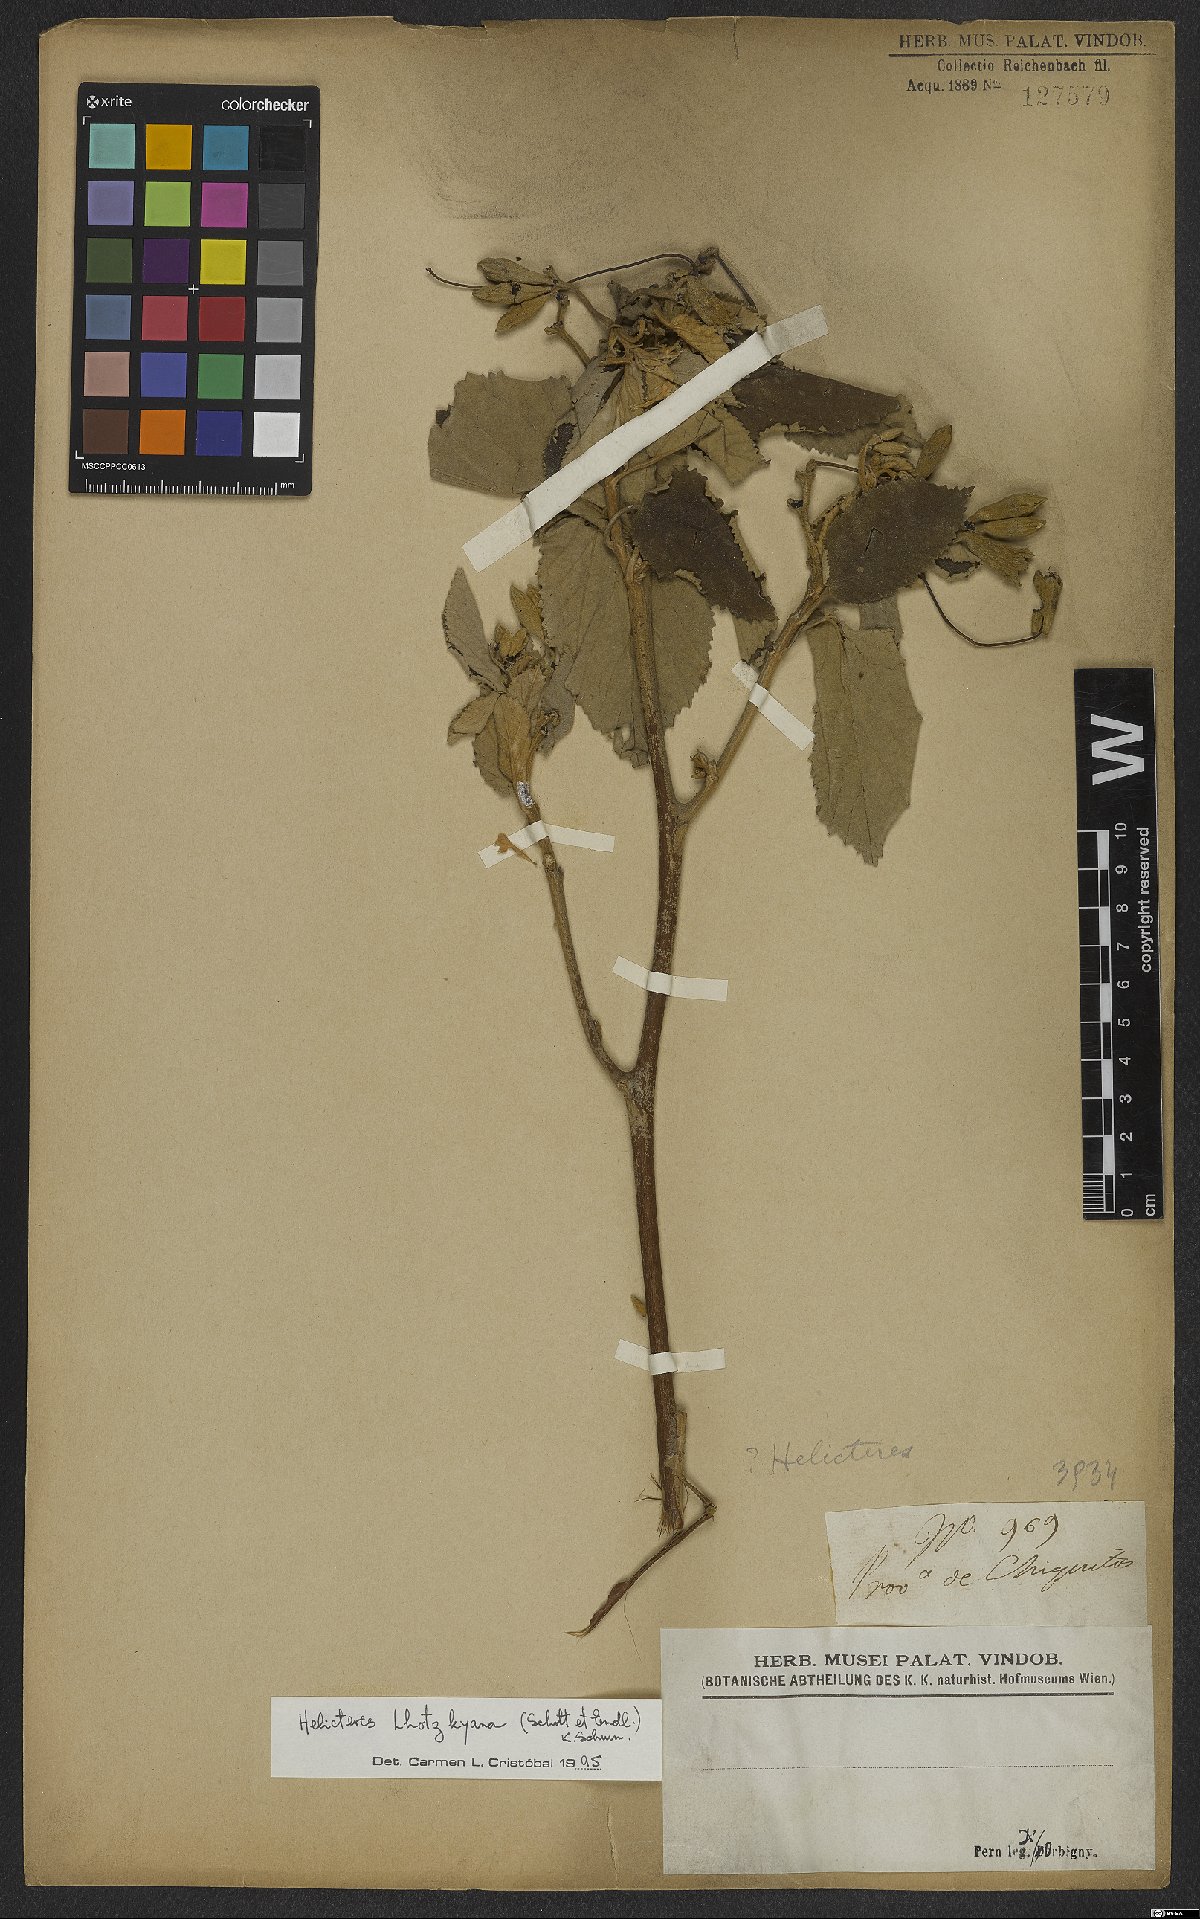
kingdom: Plantae
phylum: Tracheophyta
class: Magnoliopsida
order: Malvales
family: Malvaceae
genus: Helicteres
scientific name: Helicteres lhotzkyana
